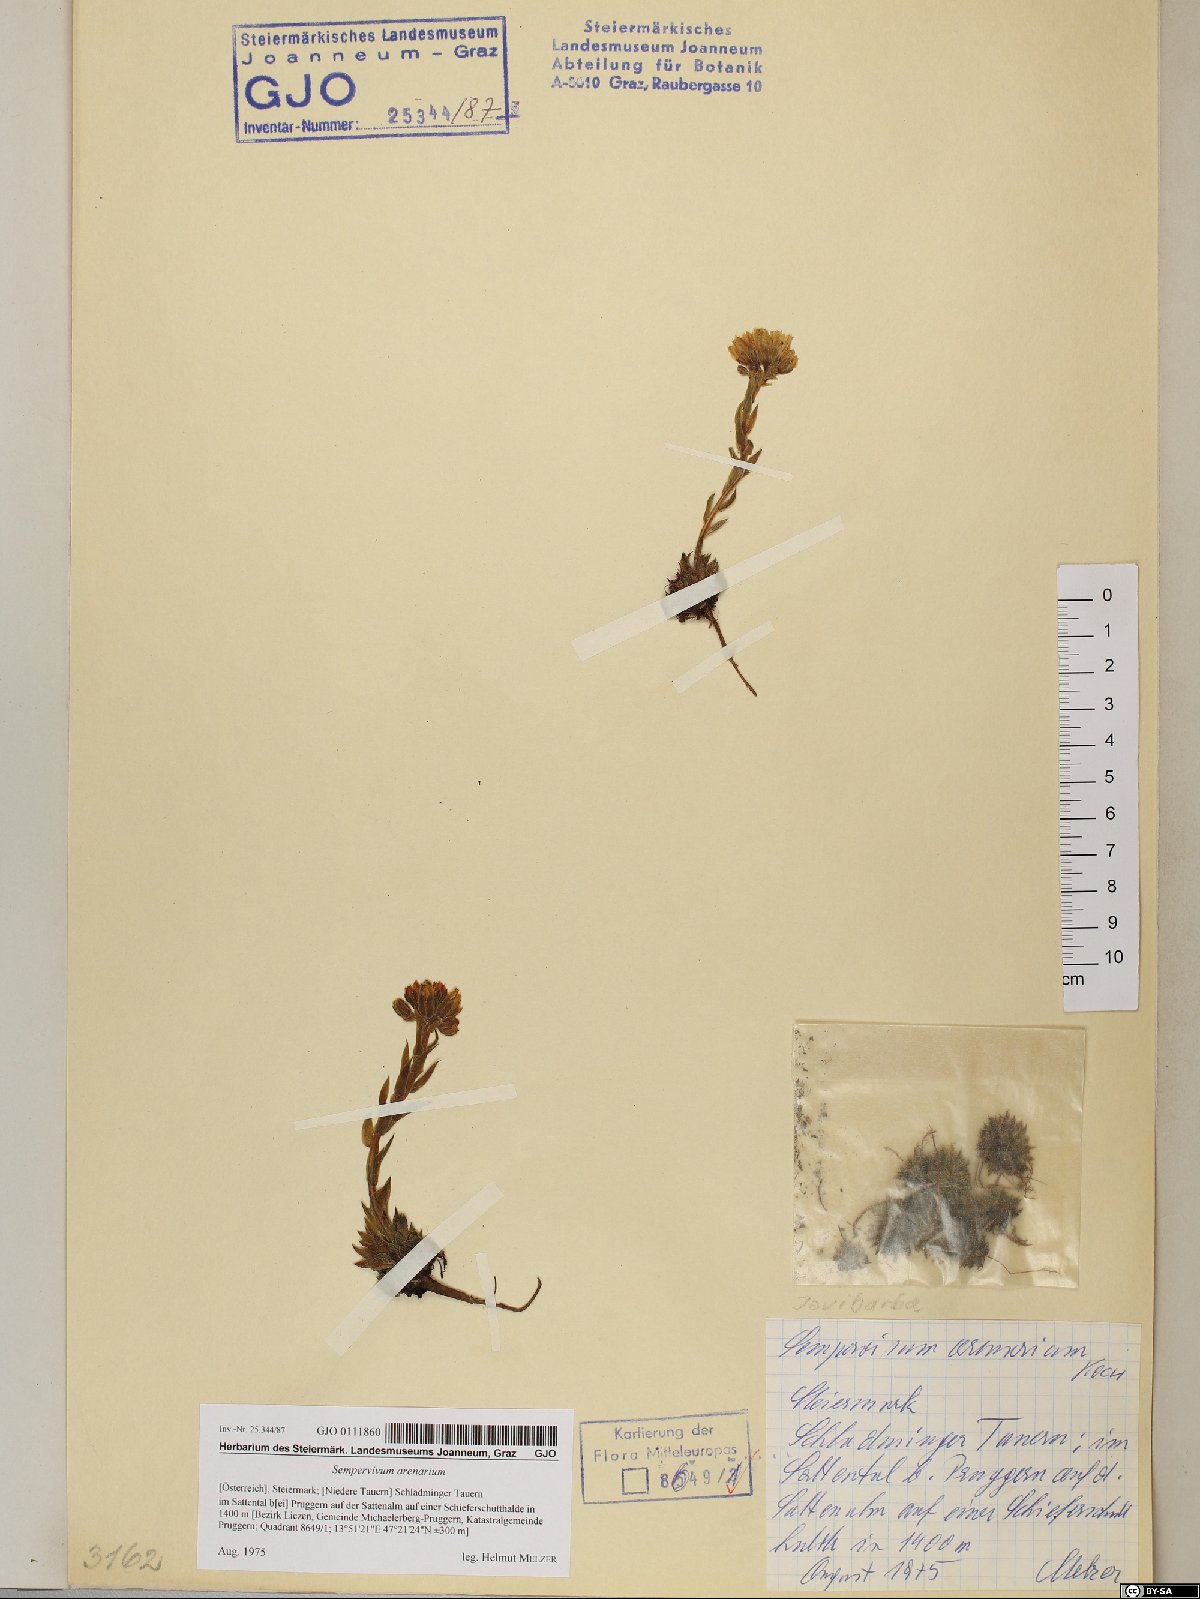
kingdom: Plantae
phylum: Tracheophyta
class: Magnoliopsida
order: Saxifragales
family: Crassulaceae
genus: Sempervivum
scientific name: Sempervivum globiferum
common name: Rolling hen-and-chicks
